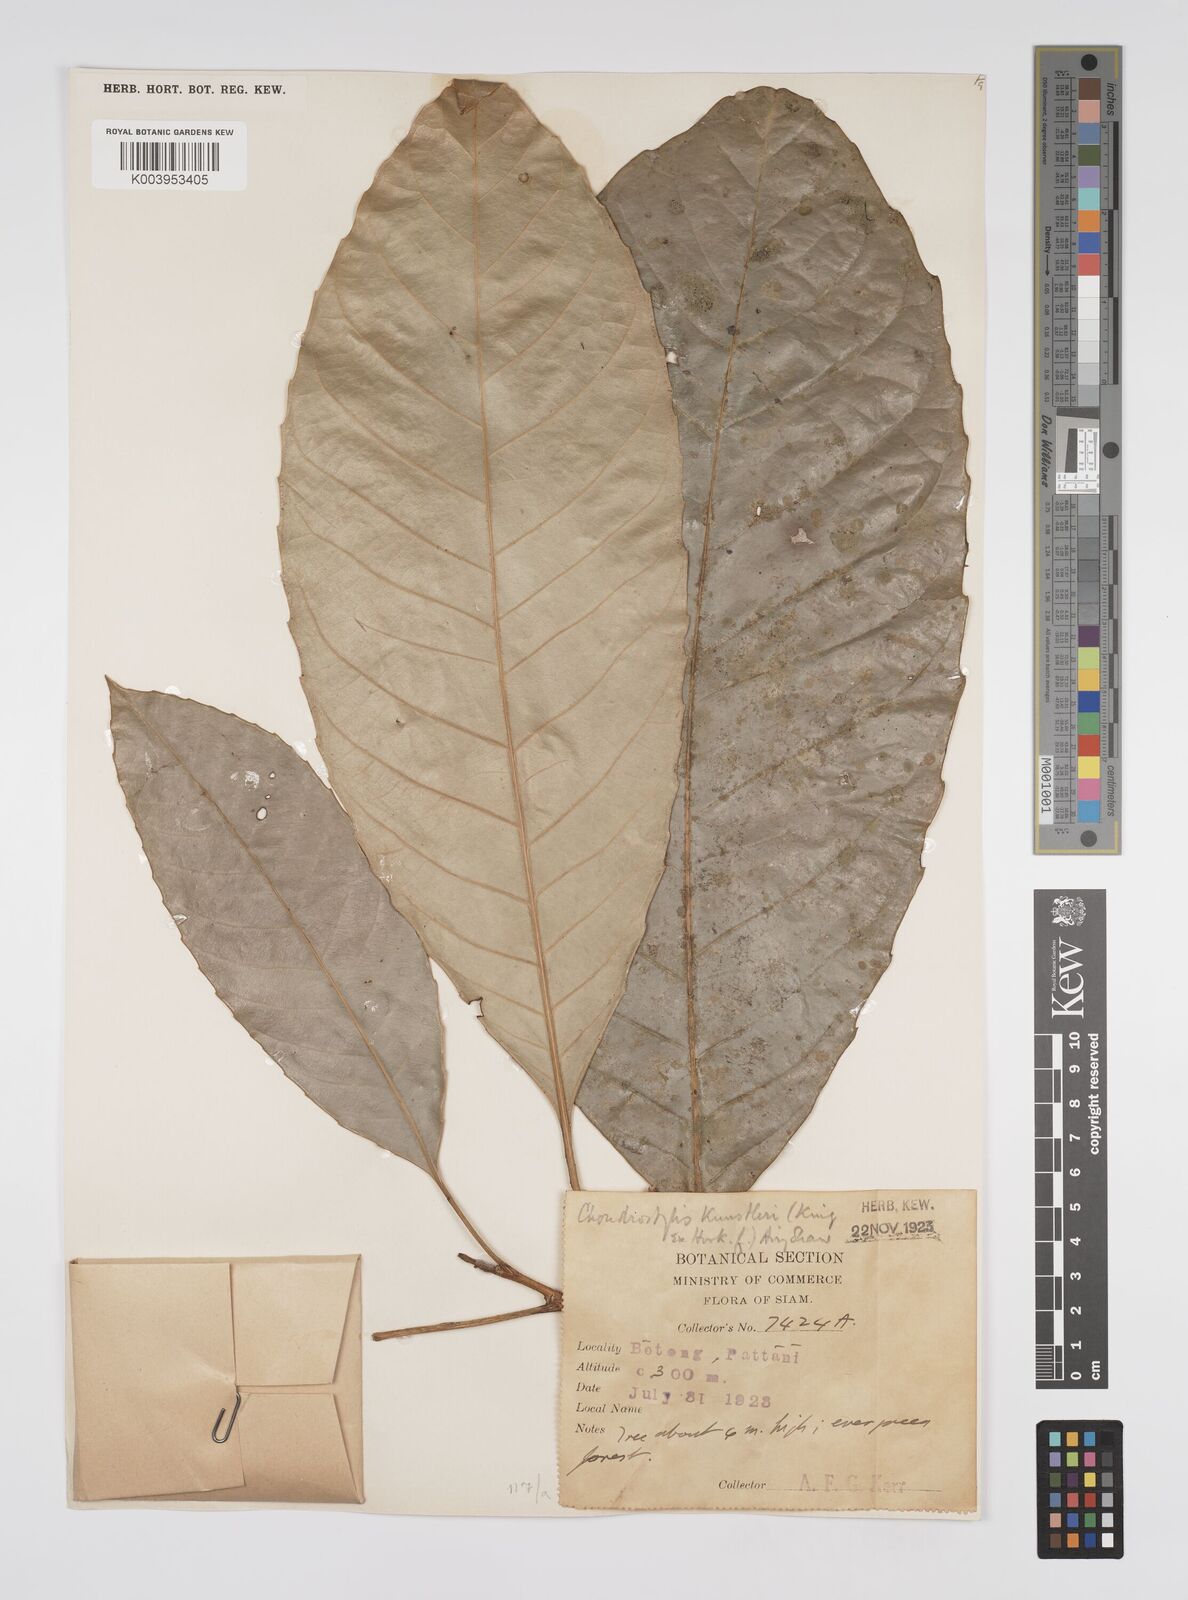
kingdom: Plantae
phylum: Tracheophyta
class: Magnoliopsida
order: Malpighiales
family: Euphorbiaceae
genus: Chondrostylis
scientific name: Chondrostylis kunstleri
